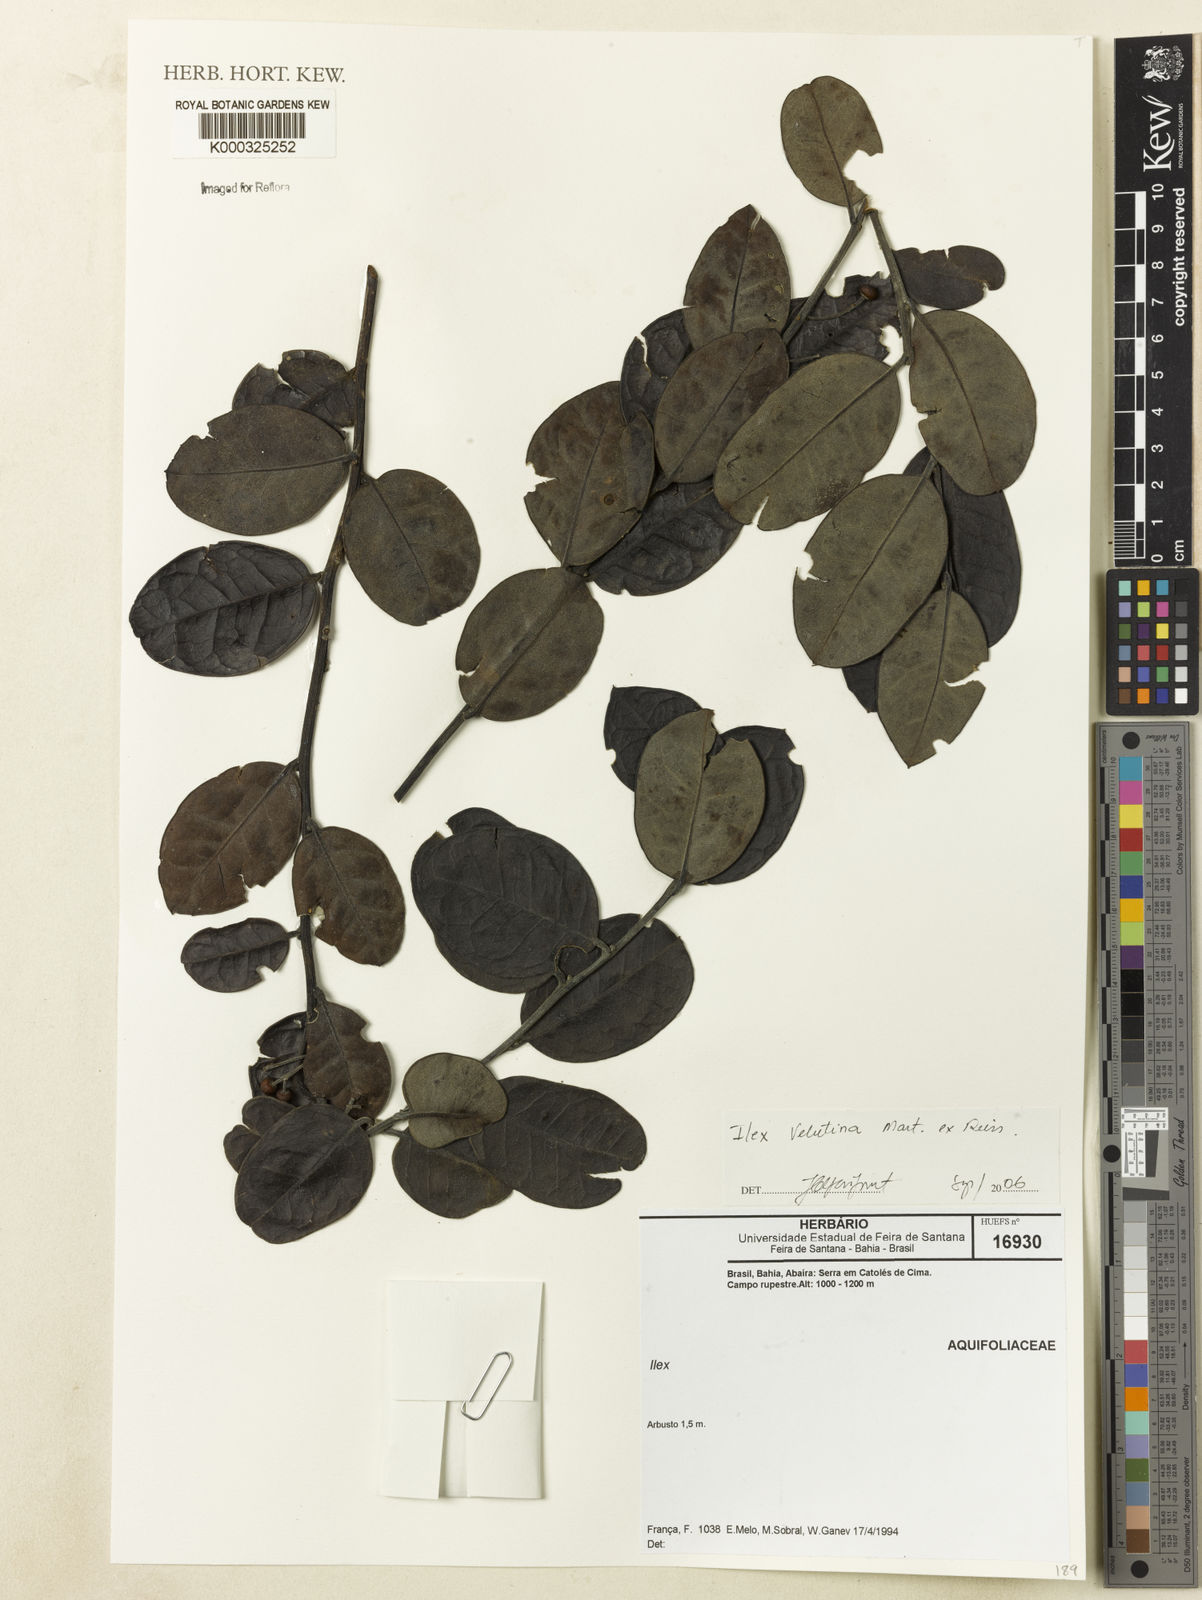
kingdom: Plantae
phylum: Tracheophyta
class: Magnoliopsida
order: Aquifoliales
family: Aquifoliaceae
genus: Ilex
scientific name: Ilex velutina
